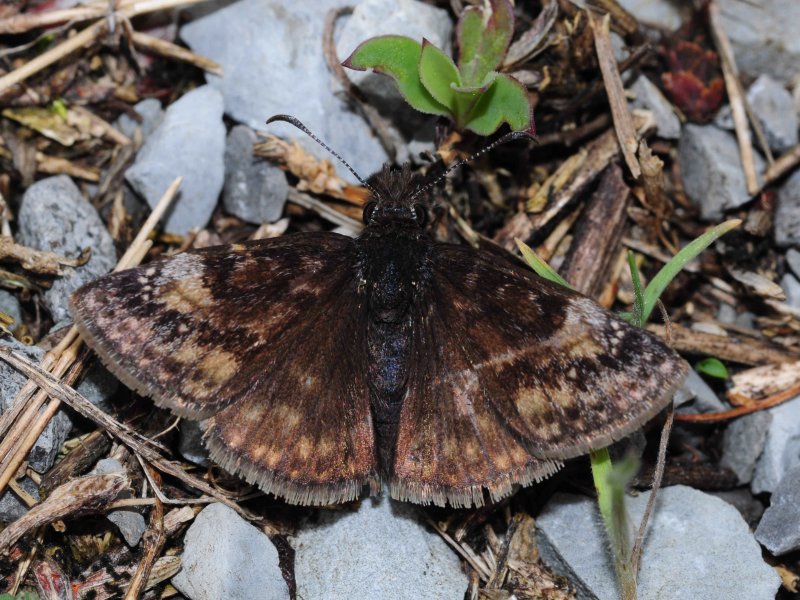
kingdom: Animalia
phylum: Arthropoda
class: Insecta
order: Lepidoptera
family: Hesperiidae
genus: Gesta
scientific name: Gesta
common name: Columbine Duskywing
